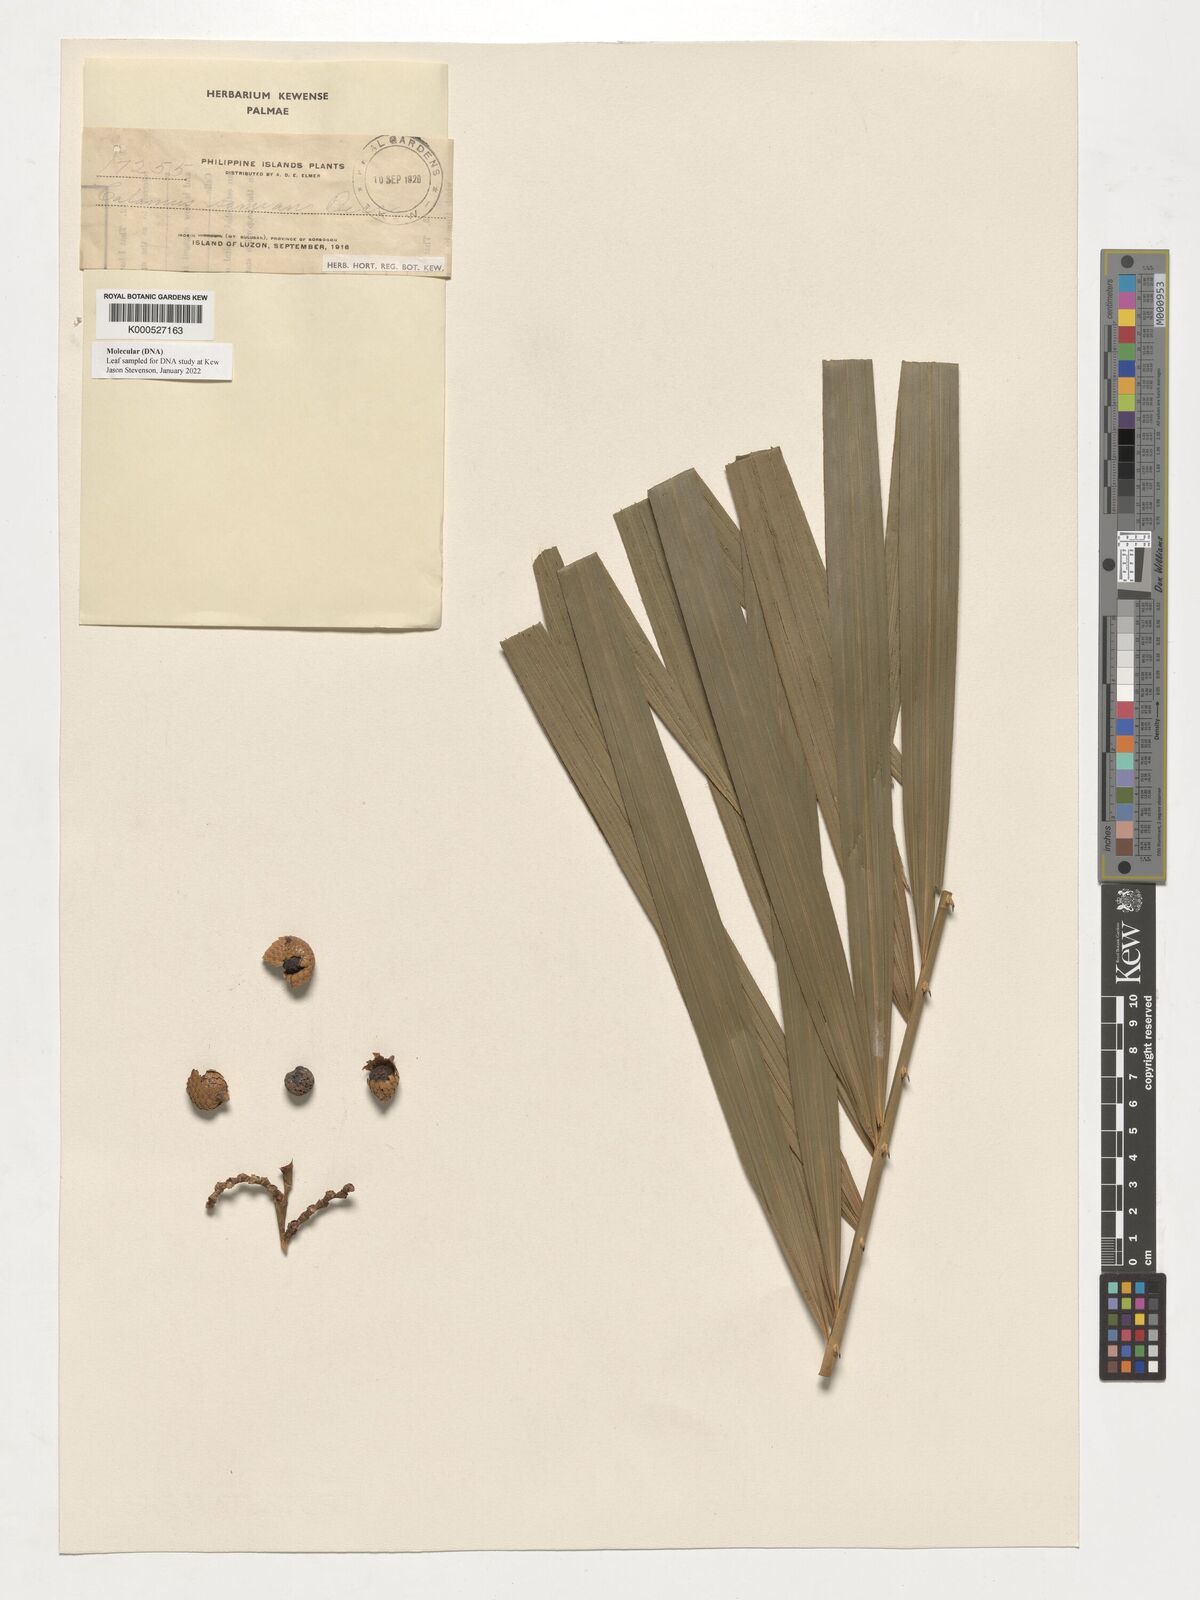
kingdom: Plantae
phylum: Tracheophyta
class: Liliopsida
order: Arecales
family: Arecaceae
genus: Calamus
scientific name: Calamus samian
